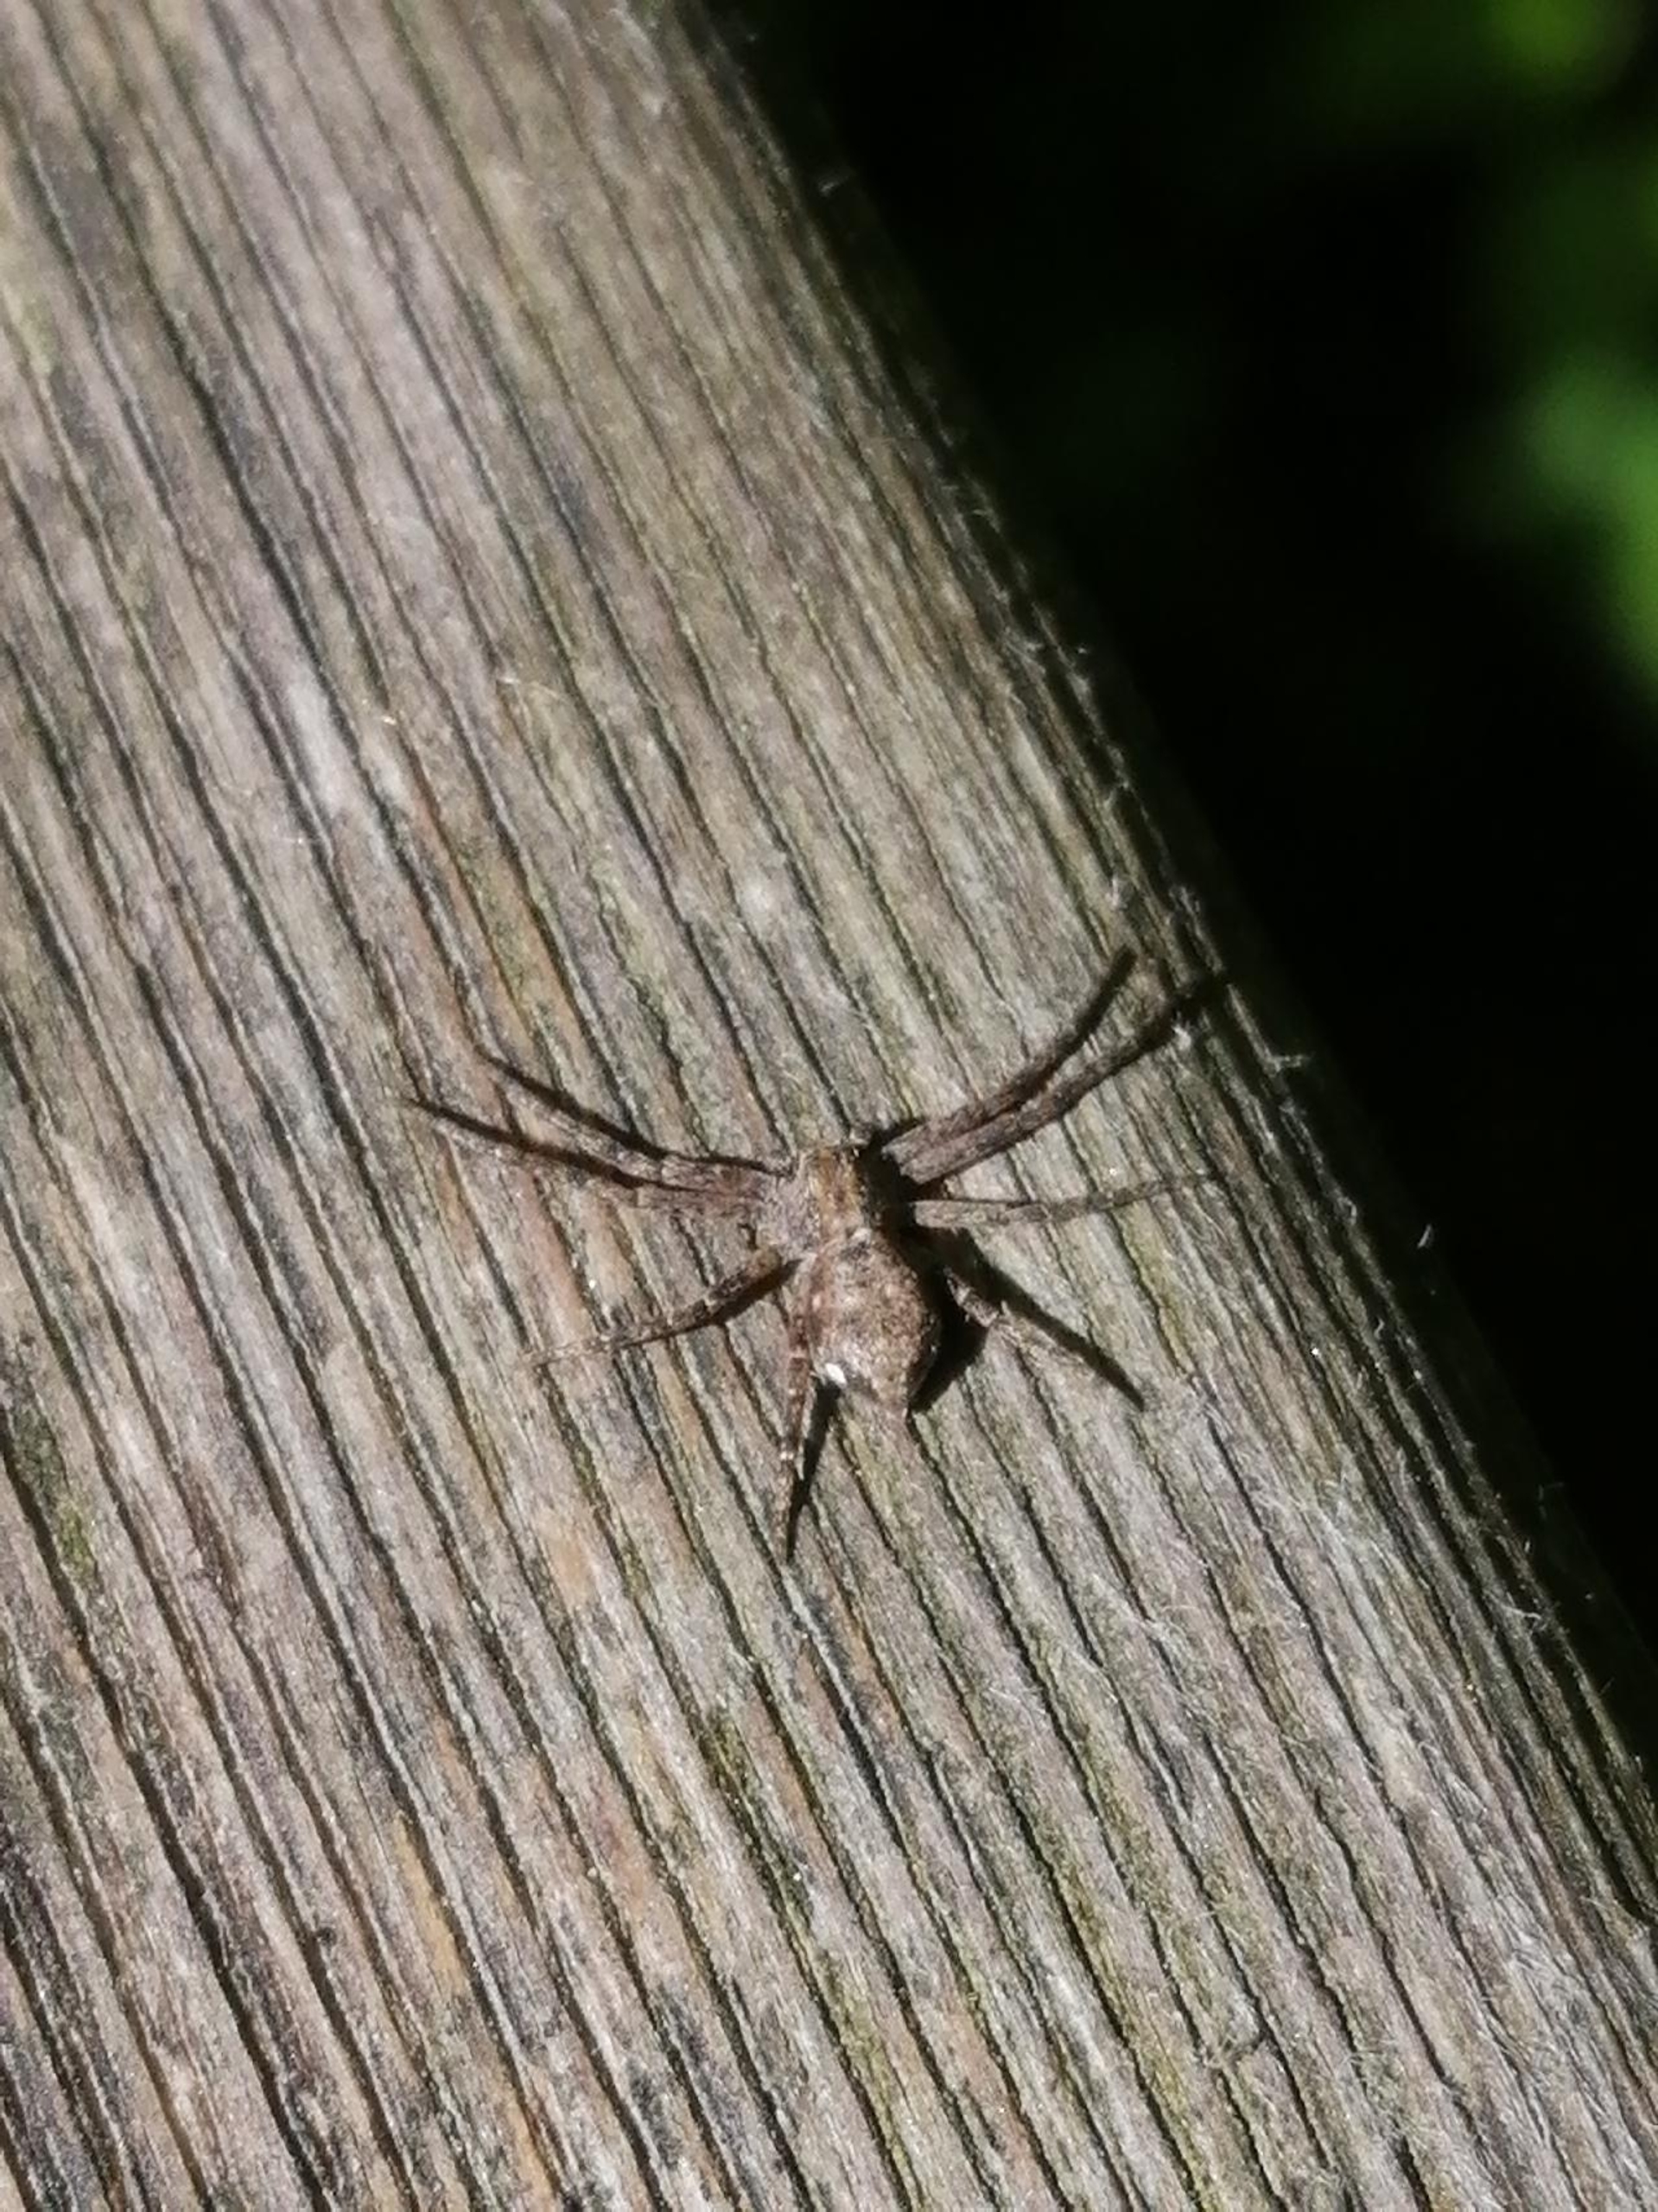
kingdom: Animalia
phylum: Arthropoda
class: Arachnida
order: Araneae
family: Philodromidae
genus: Philodromus
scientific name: Philodromus
